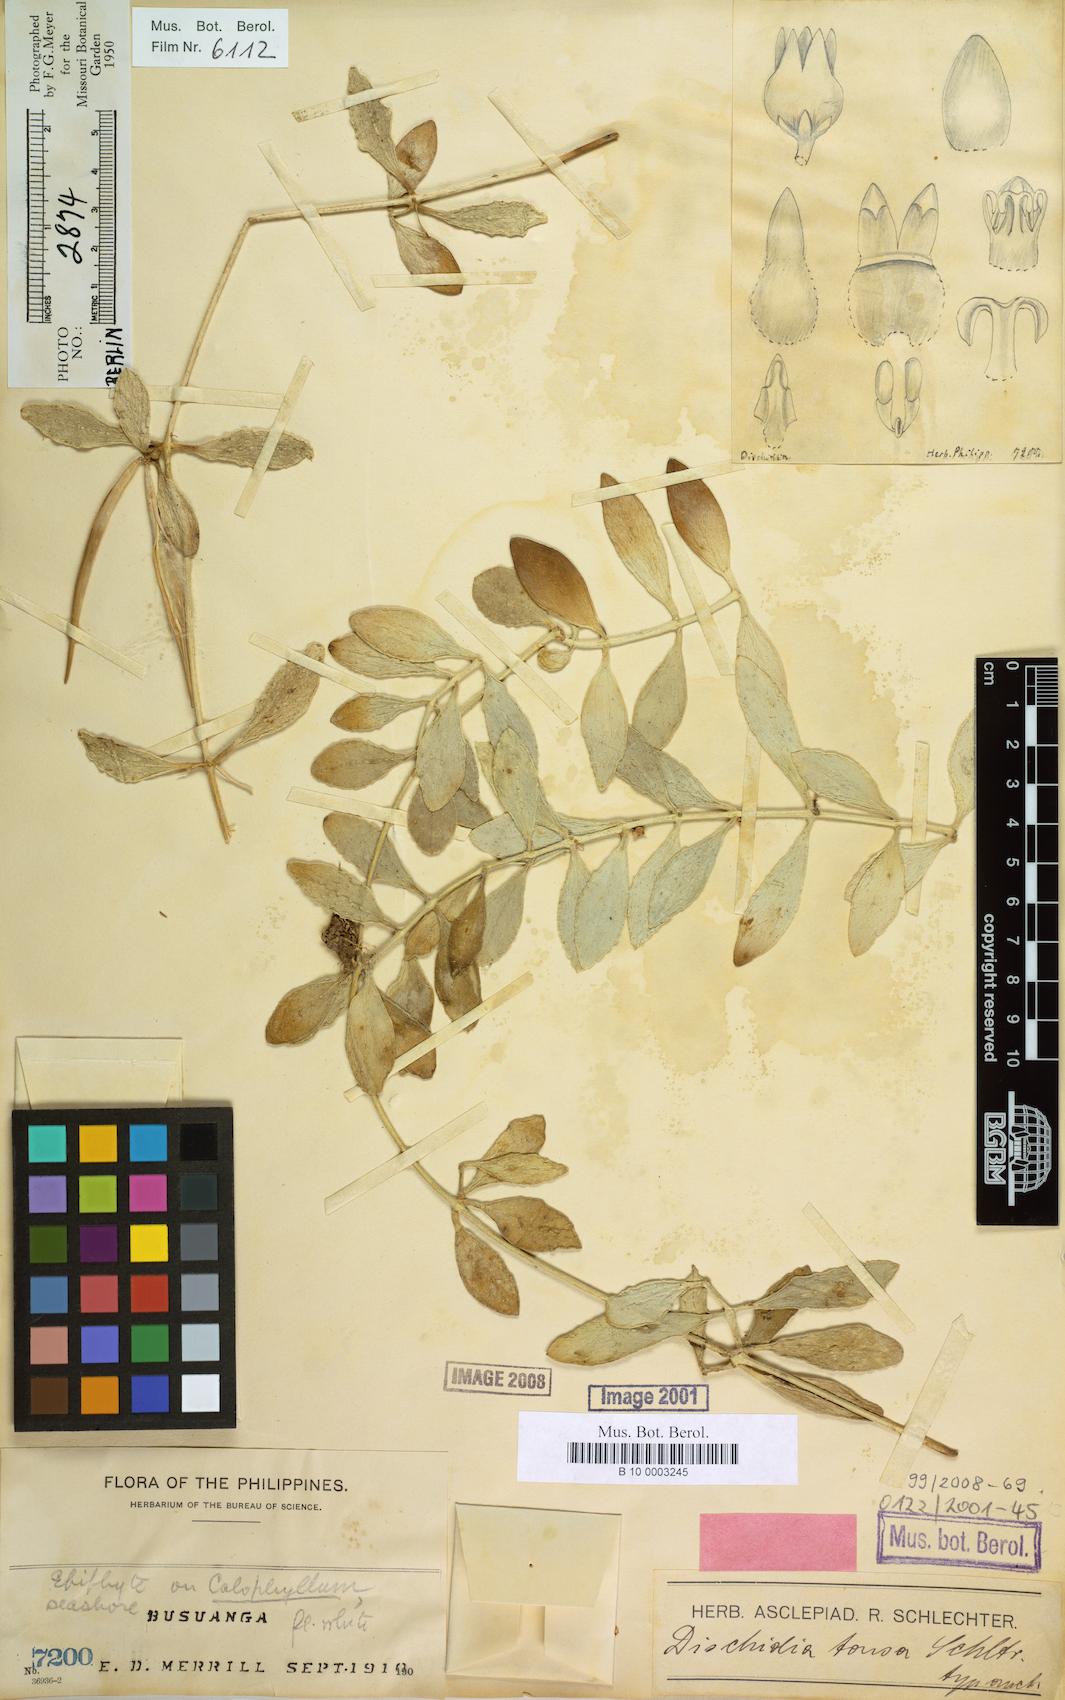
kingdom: Plantae
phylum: Tracheophyta
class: Magnoliopsida
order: Gentianales
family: Apocynaceae
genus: Dischidia
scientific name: Dischidia tonsa
